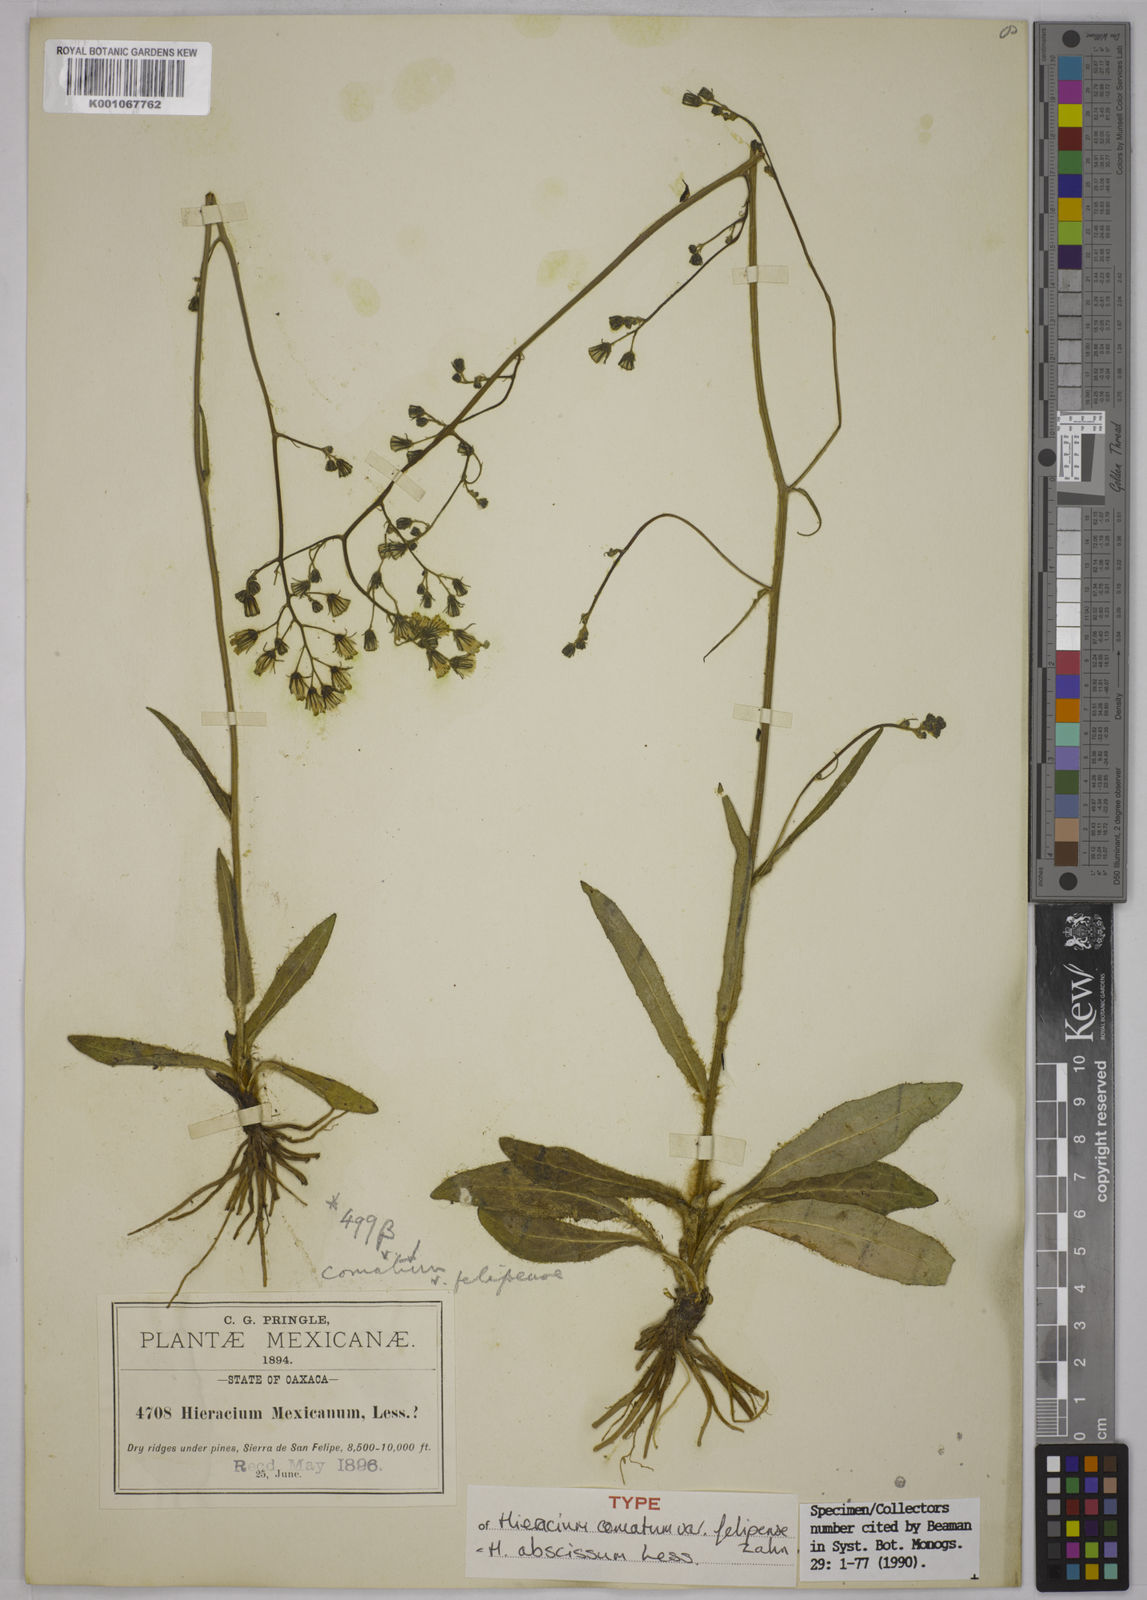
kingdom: Plantae
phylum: Tracheophyta
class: Magnoliopsida
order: Asterales
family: Asteraceae
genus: Hieracium
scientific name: Hieracium abscissum
